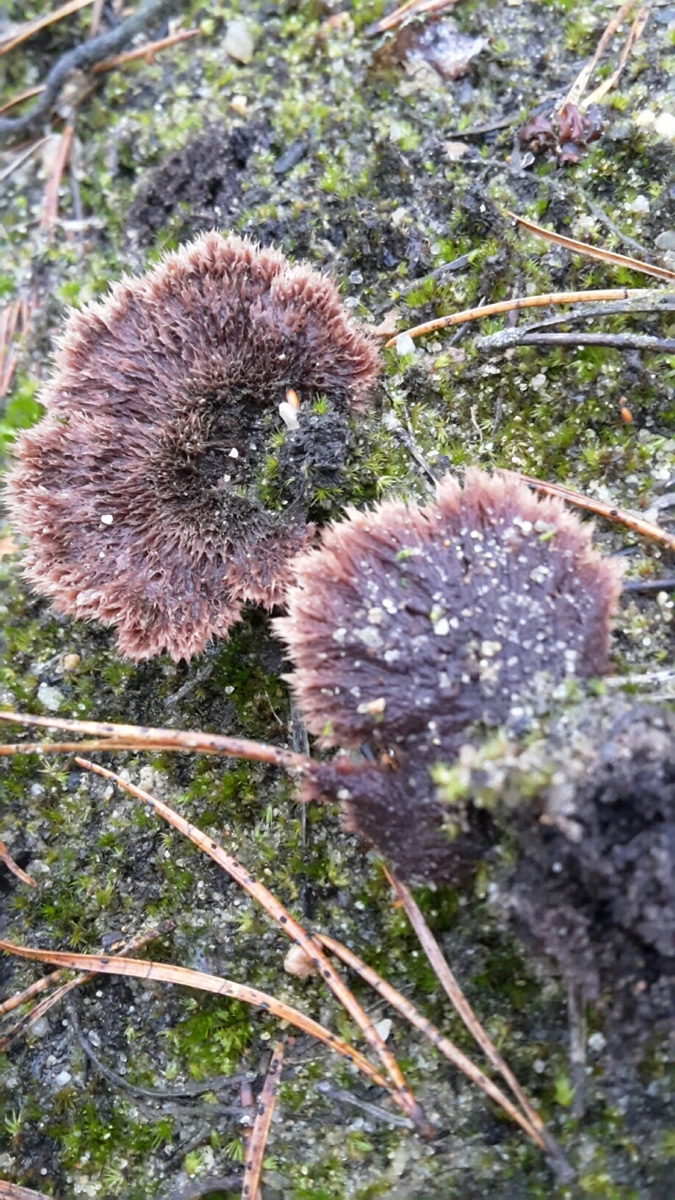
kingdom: Fungi
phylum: Basidiomycota
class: Agaricomycetes
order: Thelephorales
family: Thelephoraceae
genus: Thelephora
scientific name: Thelephora terrestris
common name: fliget frynsesvamp
